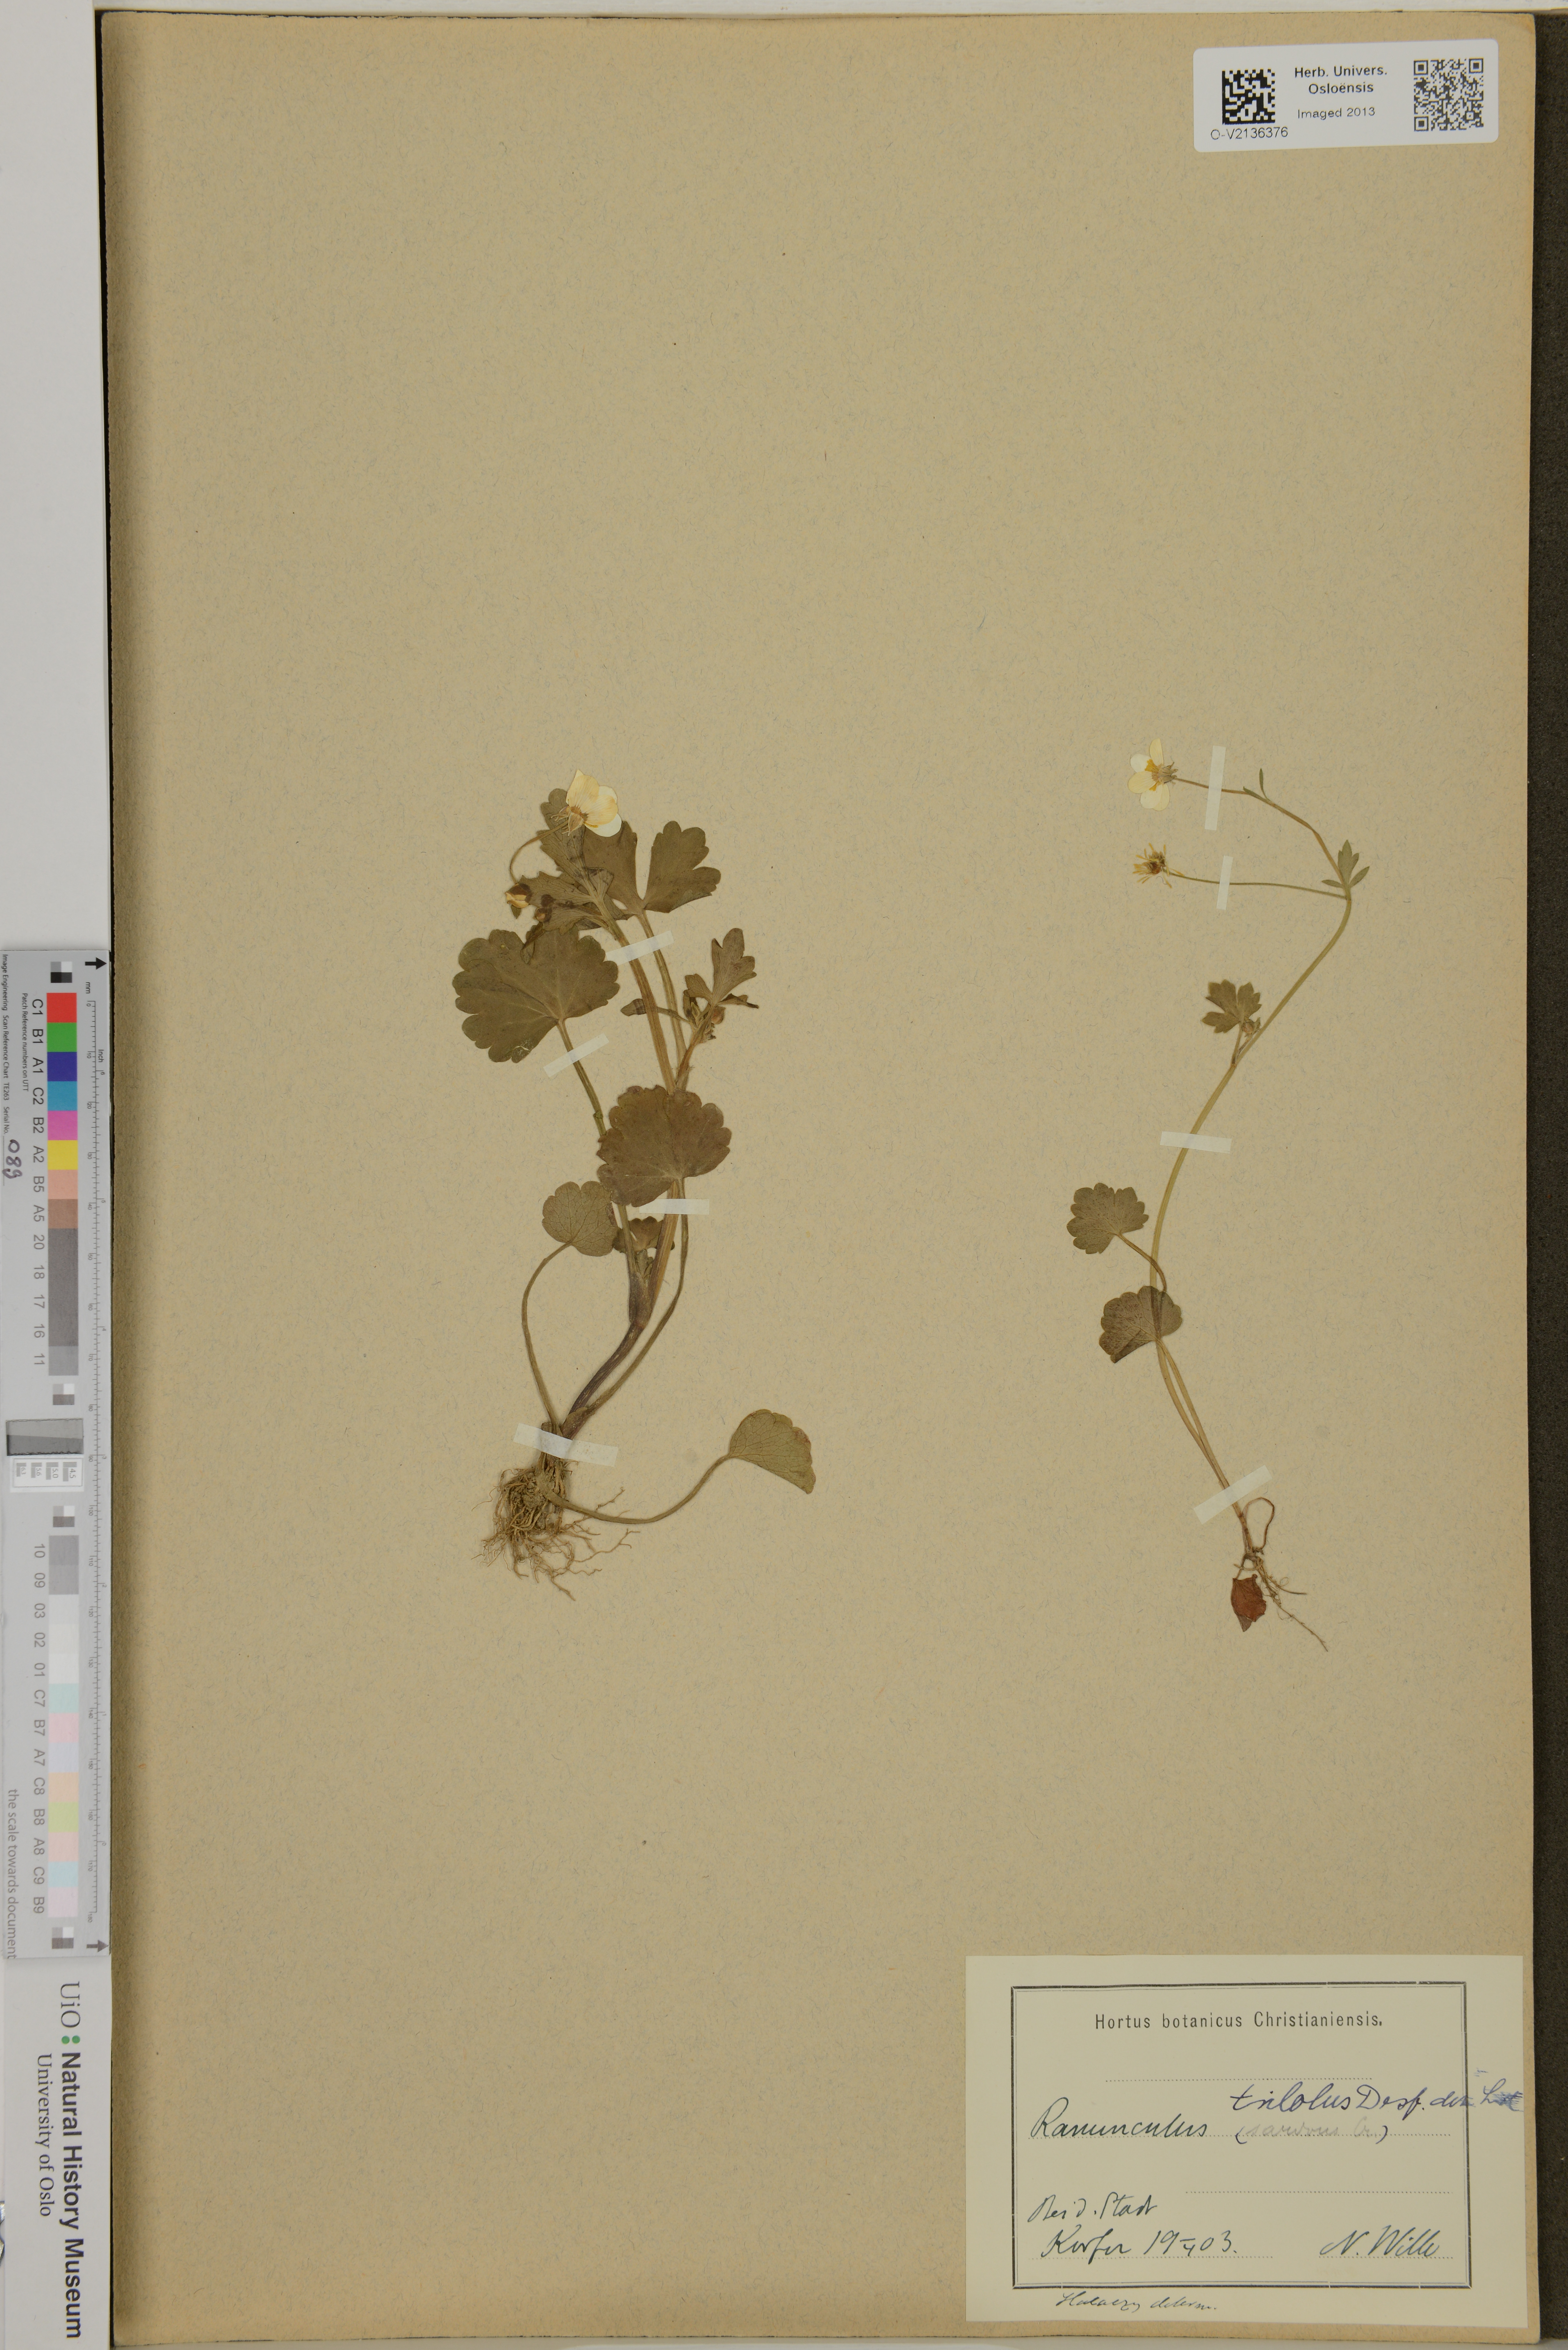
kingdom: Plantae
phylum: Tracheophyta
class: Magnoliopsida
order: Ranunculales
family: Ranunculaceae
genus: Ranunculus
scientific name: Ranunculus trilobus
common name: Threelobe buttercup
